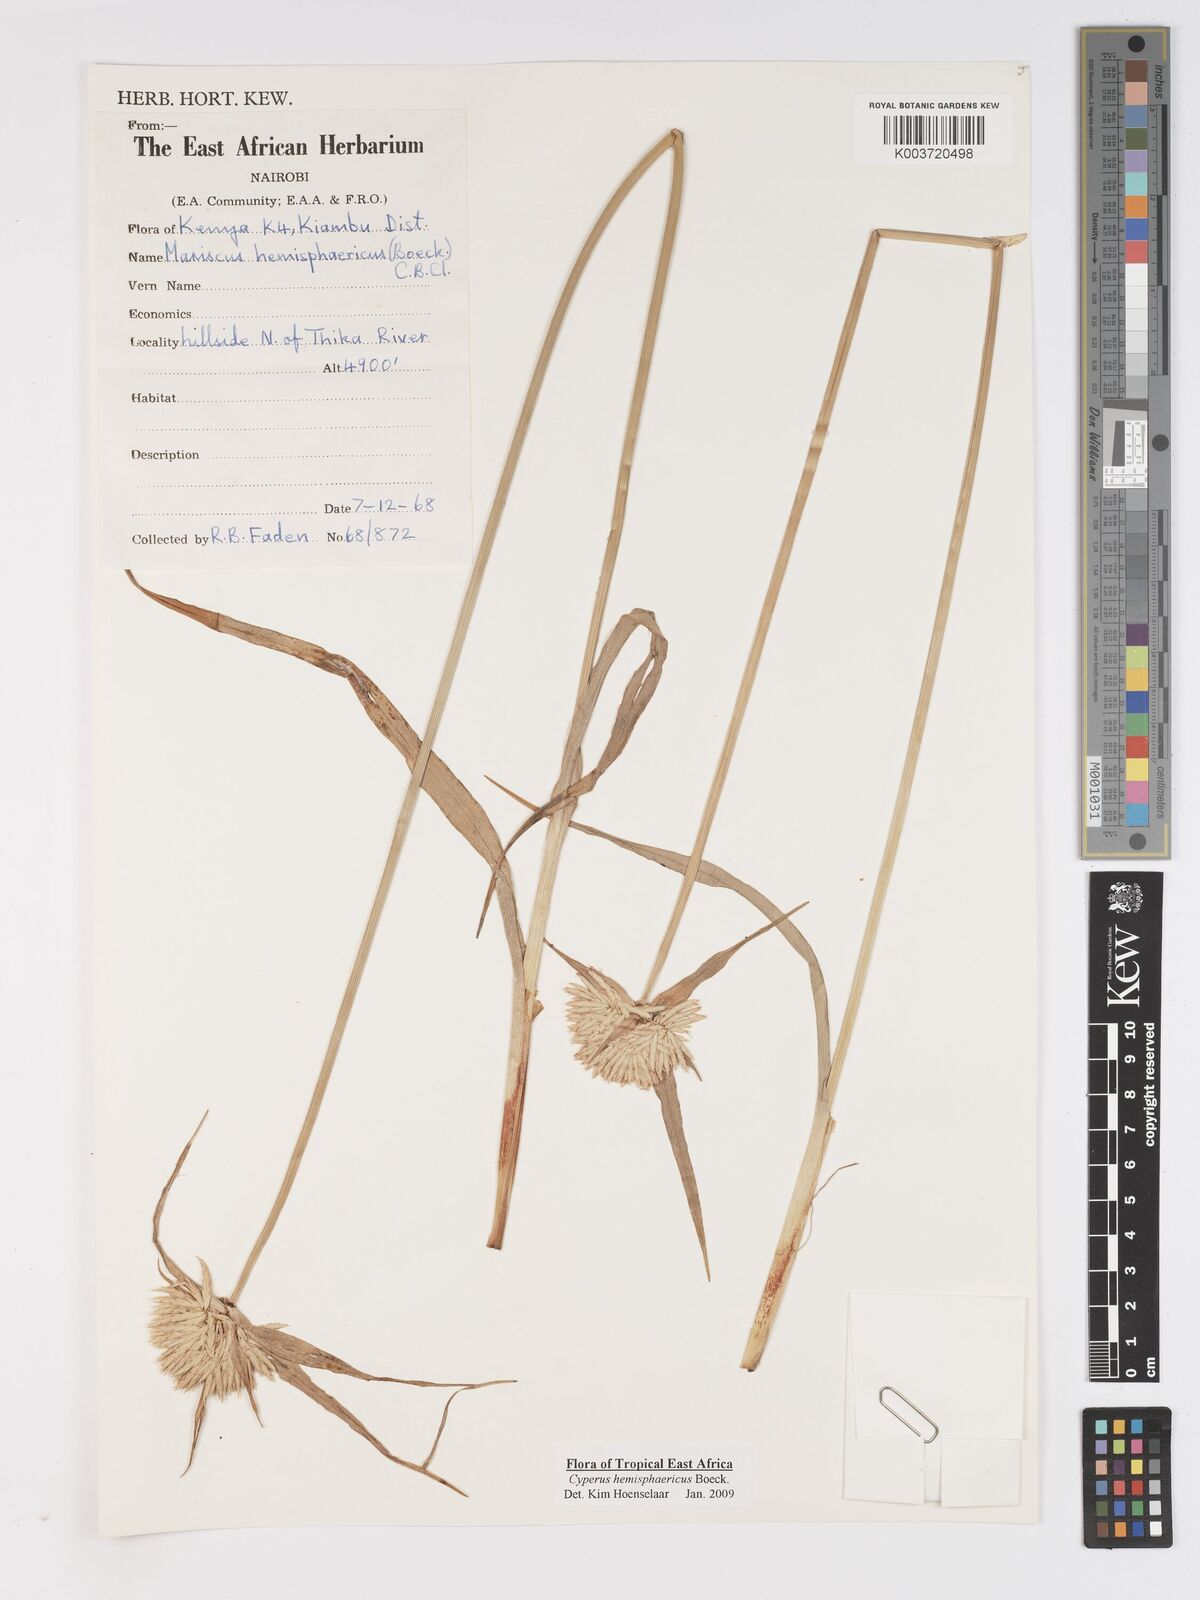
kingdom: Plantae
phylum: Tracheophyta
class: Liliopsida
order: Poales
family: Cyperaceae
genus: Cyperus
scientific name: Cyperus hemisphaericus
